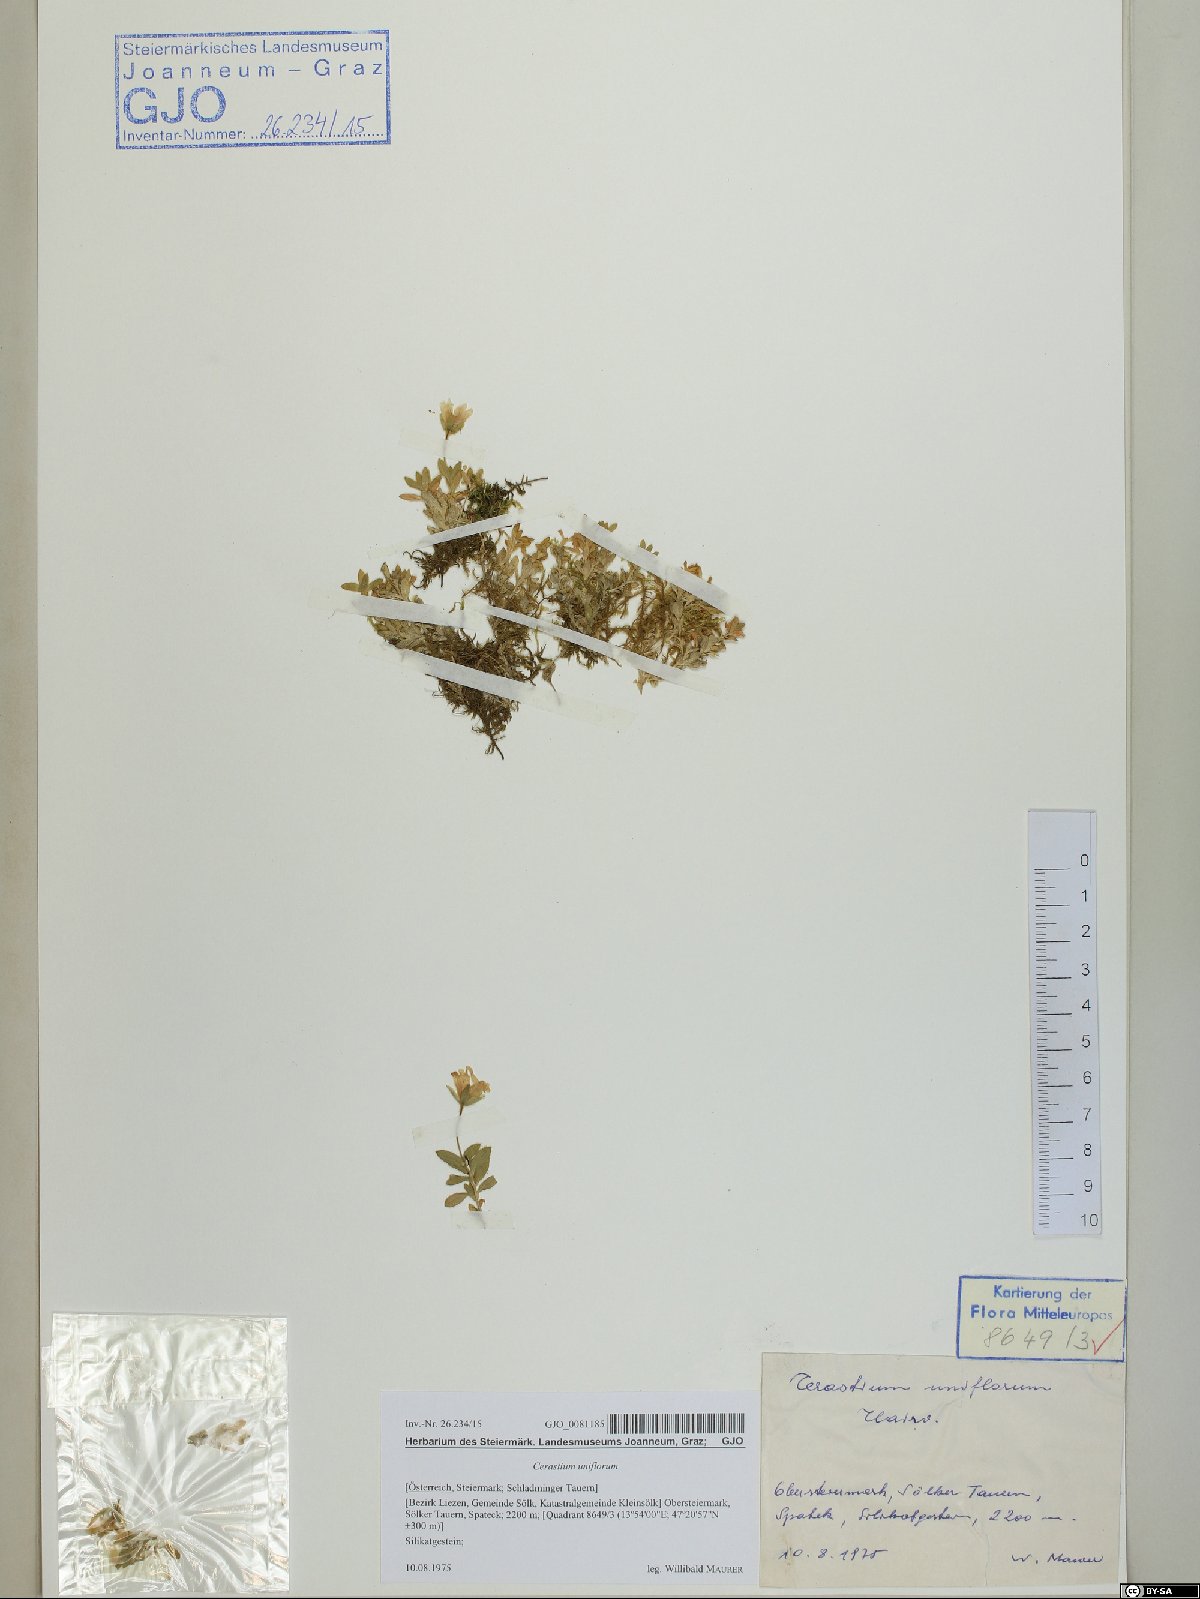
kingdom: Plantae
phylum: Tracheophyta
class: Magnoliopsida
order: Caryophyllales
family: Caryophyllaceae
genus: Cerastium
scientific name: Cerastium uniflorum
